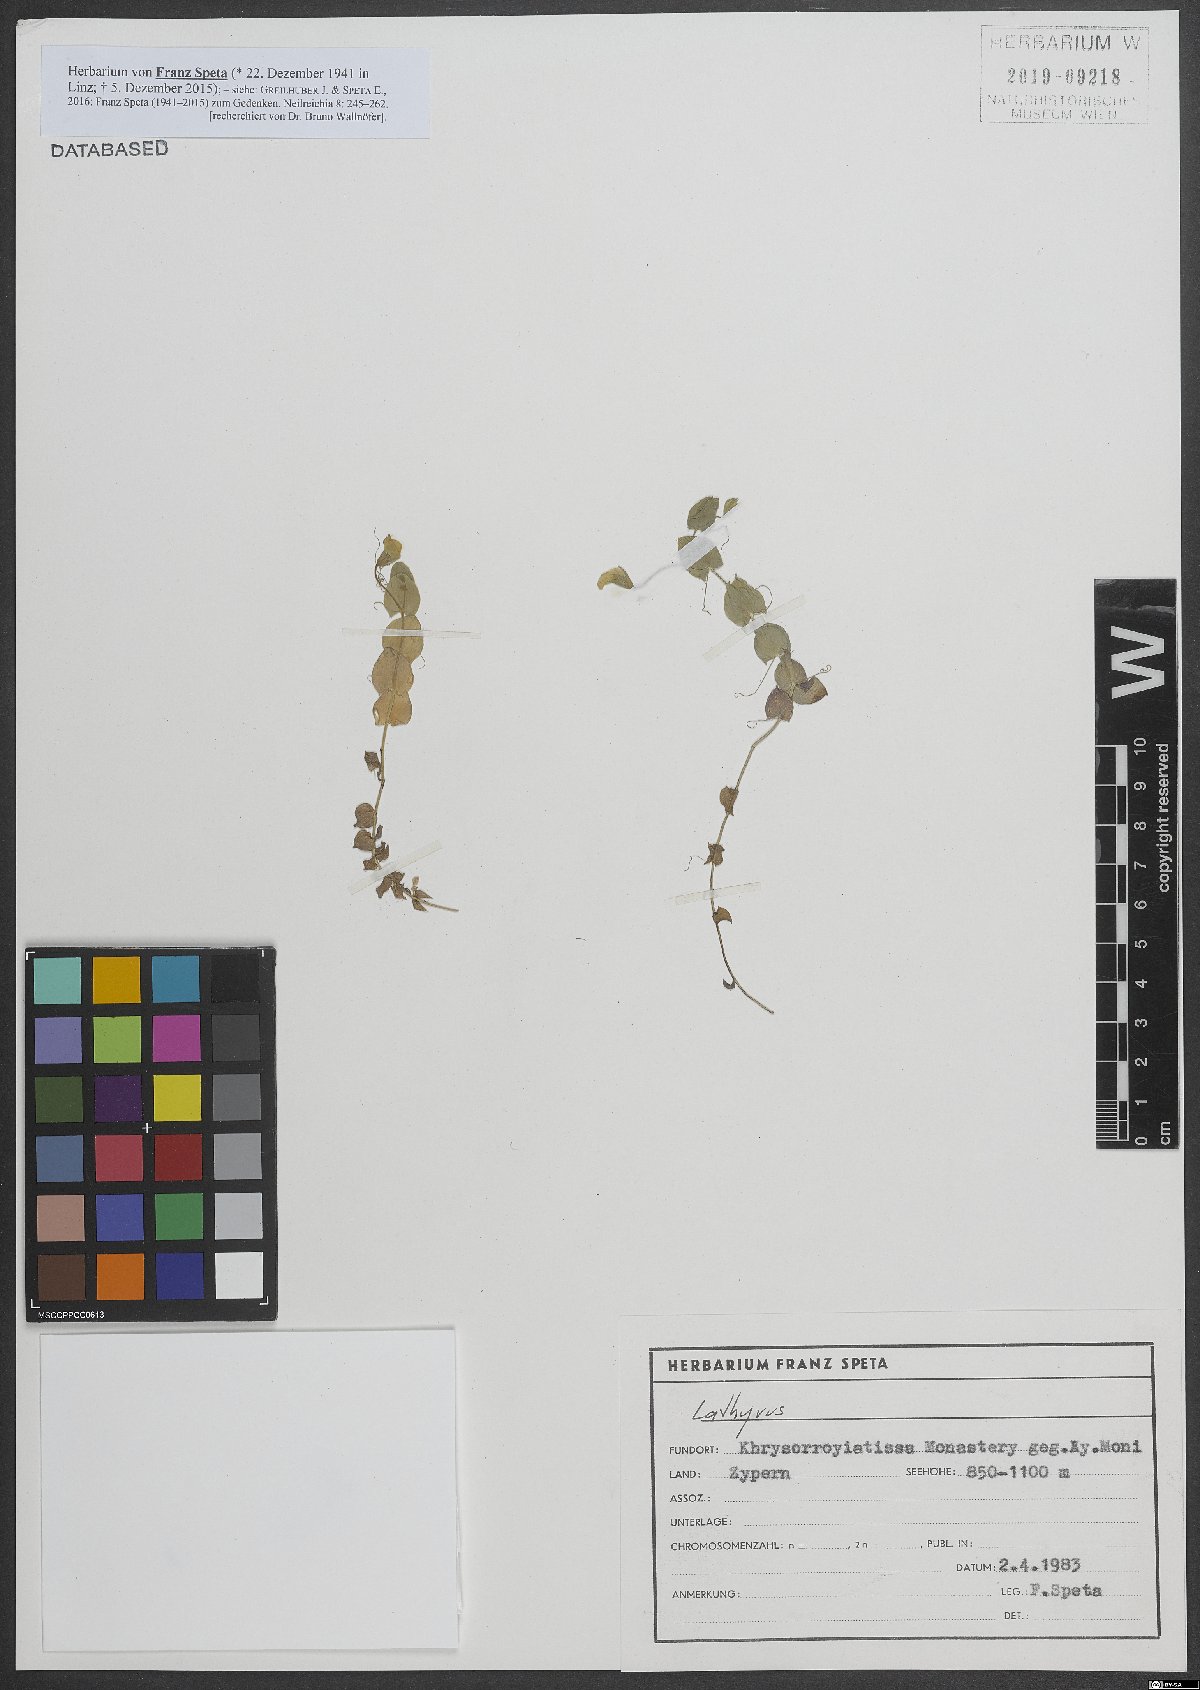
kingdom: Plantae
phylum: Tracheophyta
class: Magnoliopsida
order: Fabales
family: Fabaceae
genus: Lathyrus
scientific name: Lathyrus aphaca
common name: Yellow vetchling
